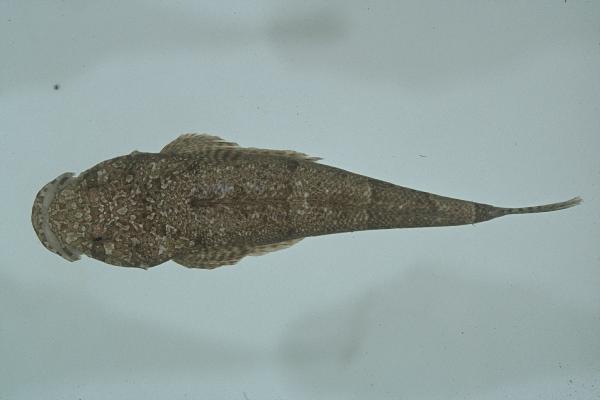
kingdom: Animalia
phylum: Chordata
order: Scorpaeniformes
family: Platycephalidae
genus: Sunagocia
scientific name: Sunagocia otaitensis
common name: Fringelip flathead
